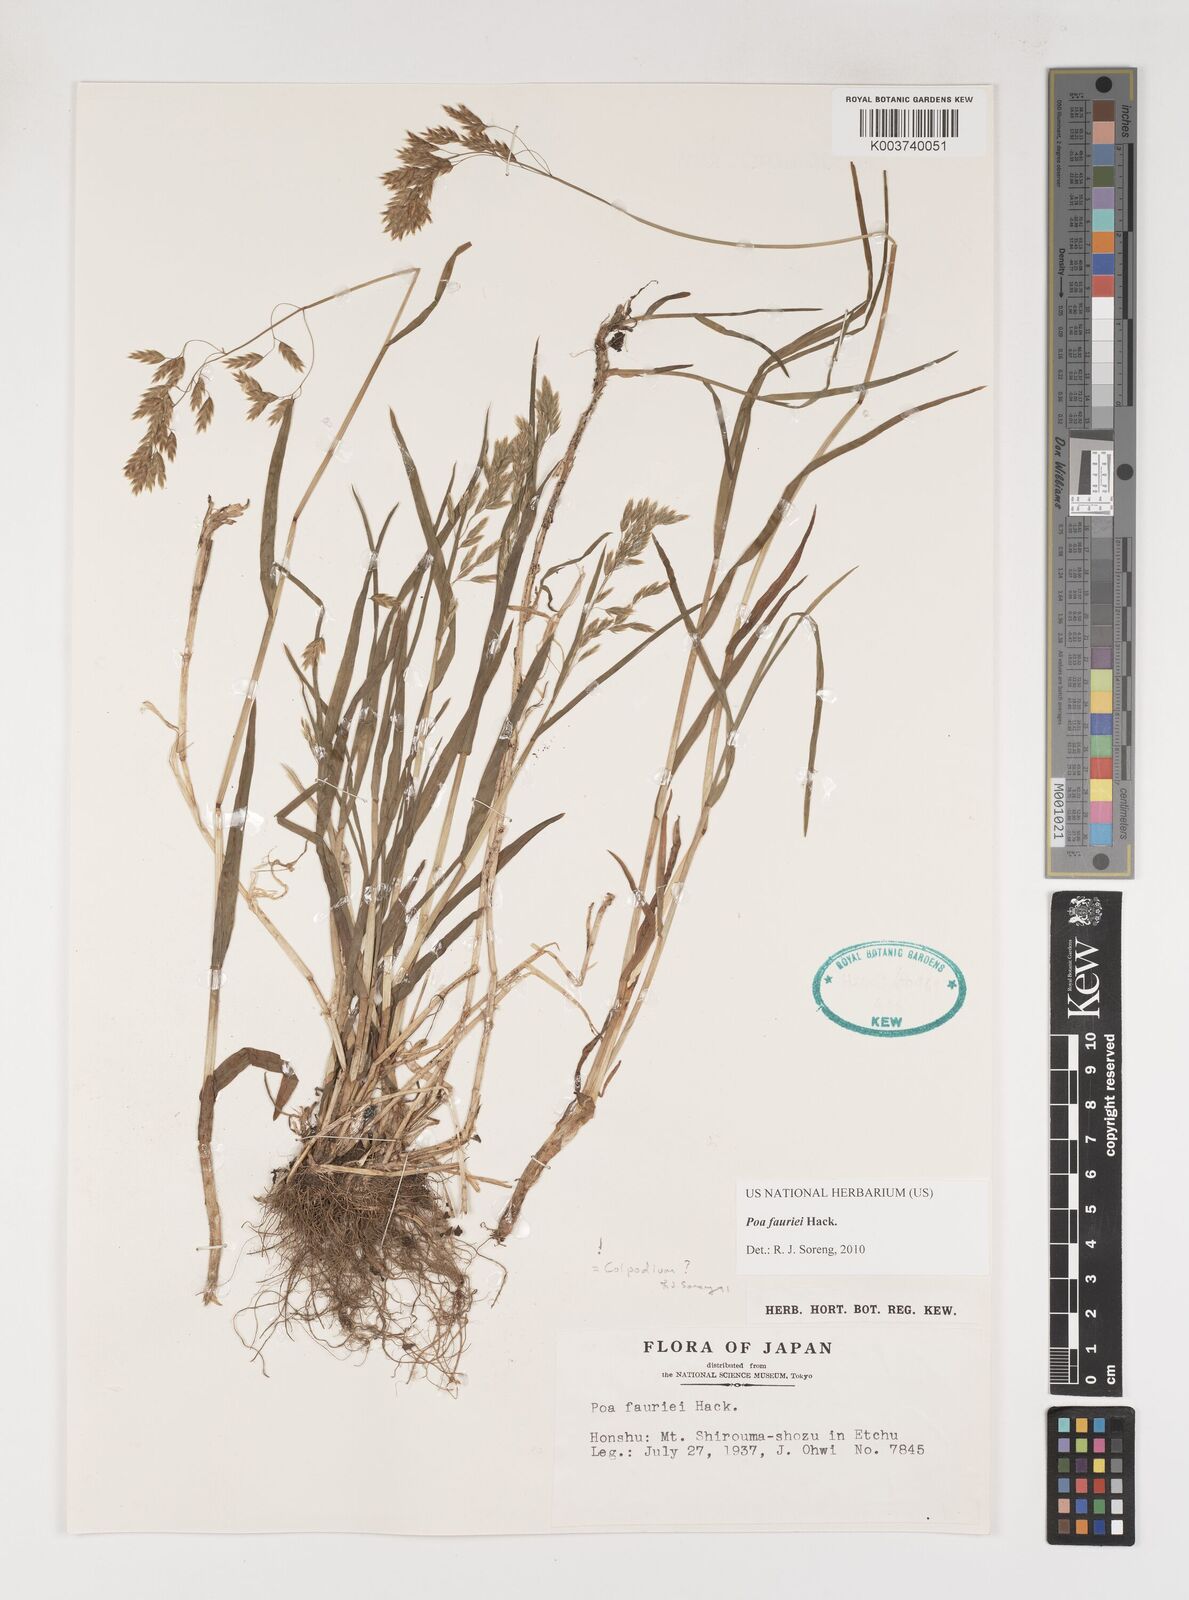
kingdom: Plantae
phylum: Tracheophyta
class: Liliopsida
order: Poales
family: Poaceae
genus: Poa
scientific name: Poa fauriei
